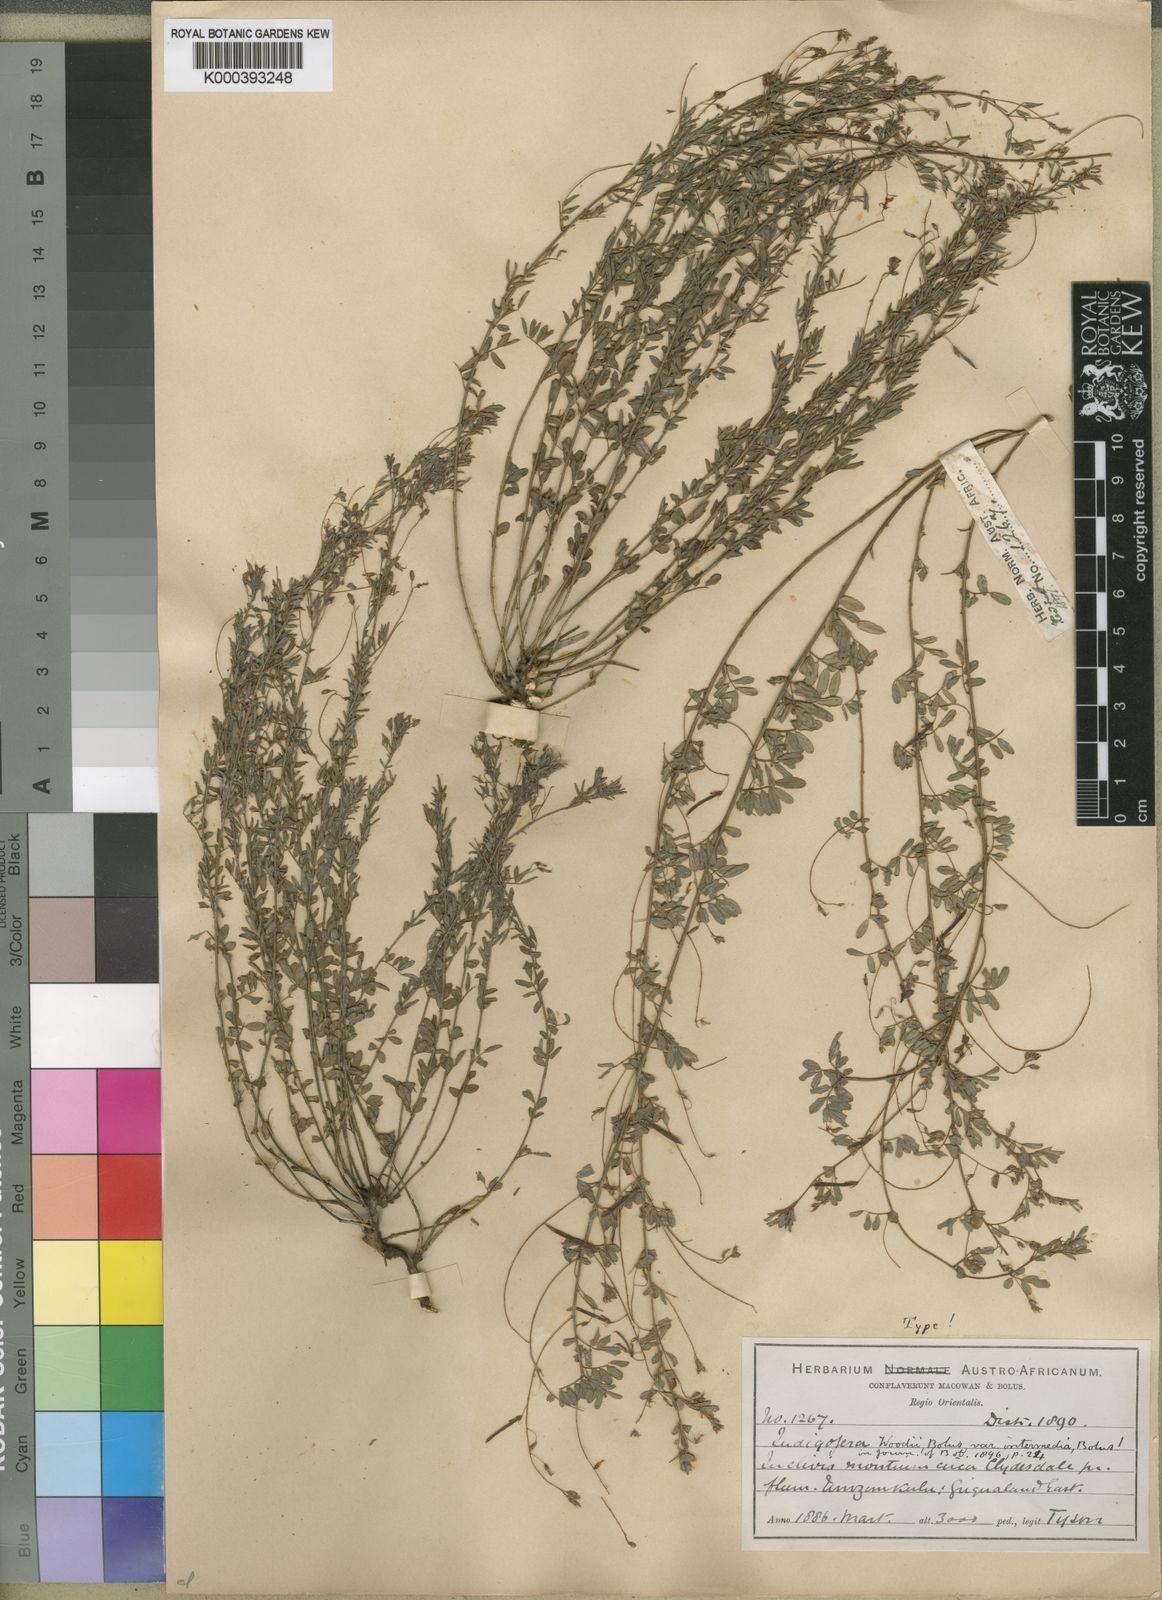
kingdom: Plantae
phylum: Tracheophyta
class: Magnoliopsida
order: Fabales
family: Fabaceae
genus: Indigofera
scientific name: Indigofera woodii
